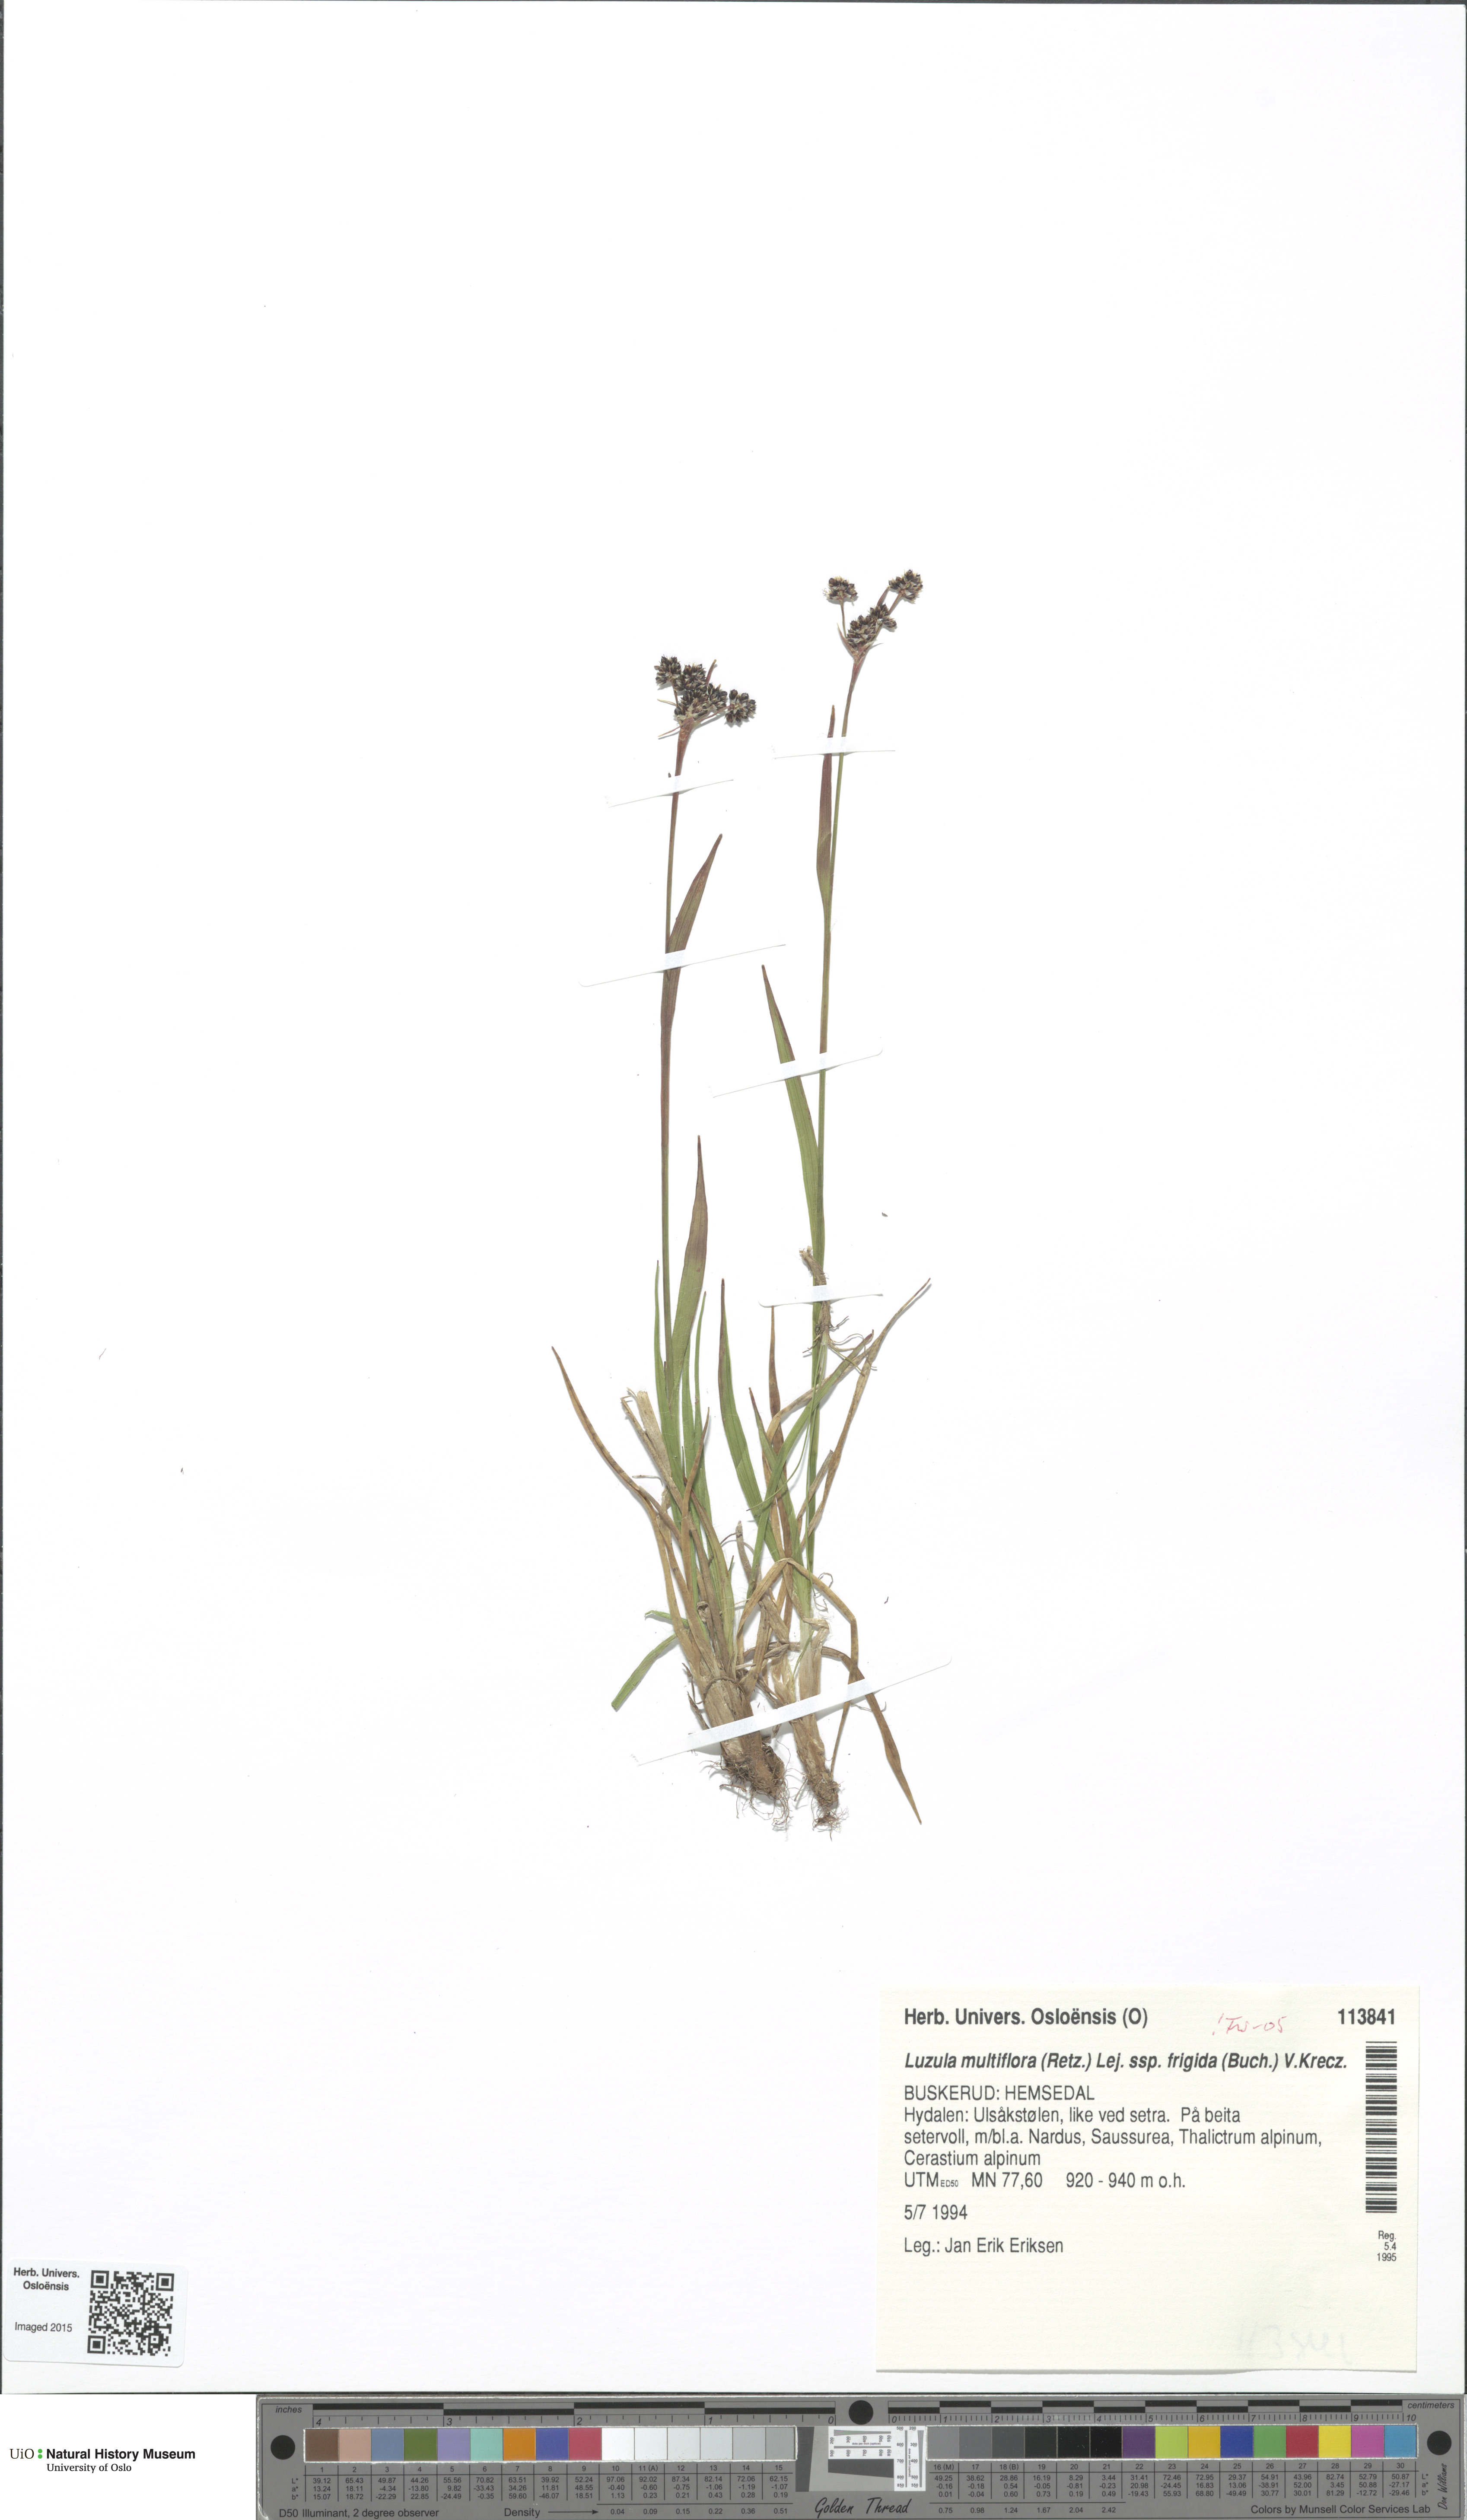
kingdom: Plantae
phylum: Tracheophyta
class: Liliopsida
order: Poales
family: Juncaceae
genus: Luzula
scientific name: Luzula multiflora
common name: Heath wood-rush
